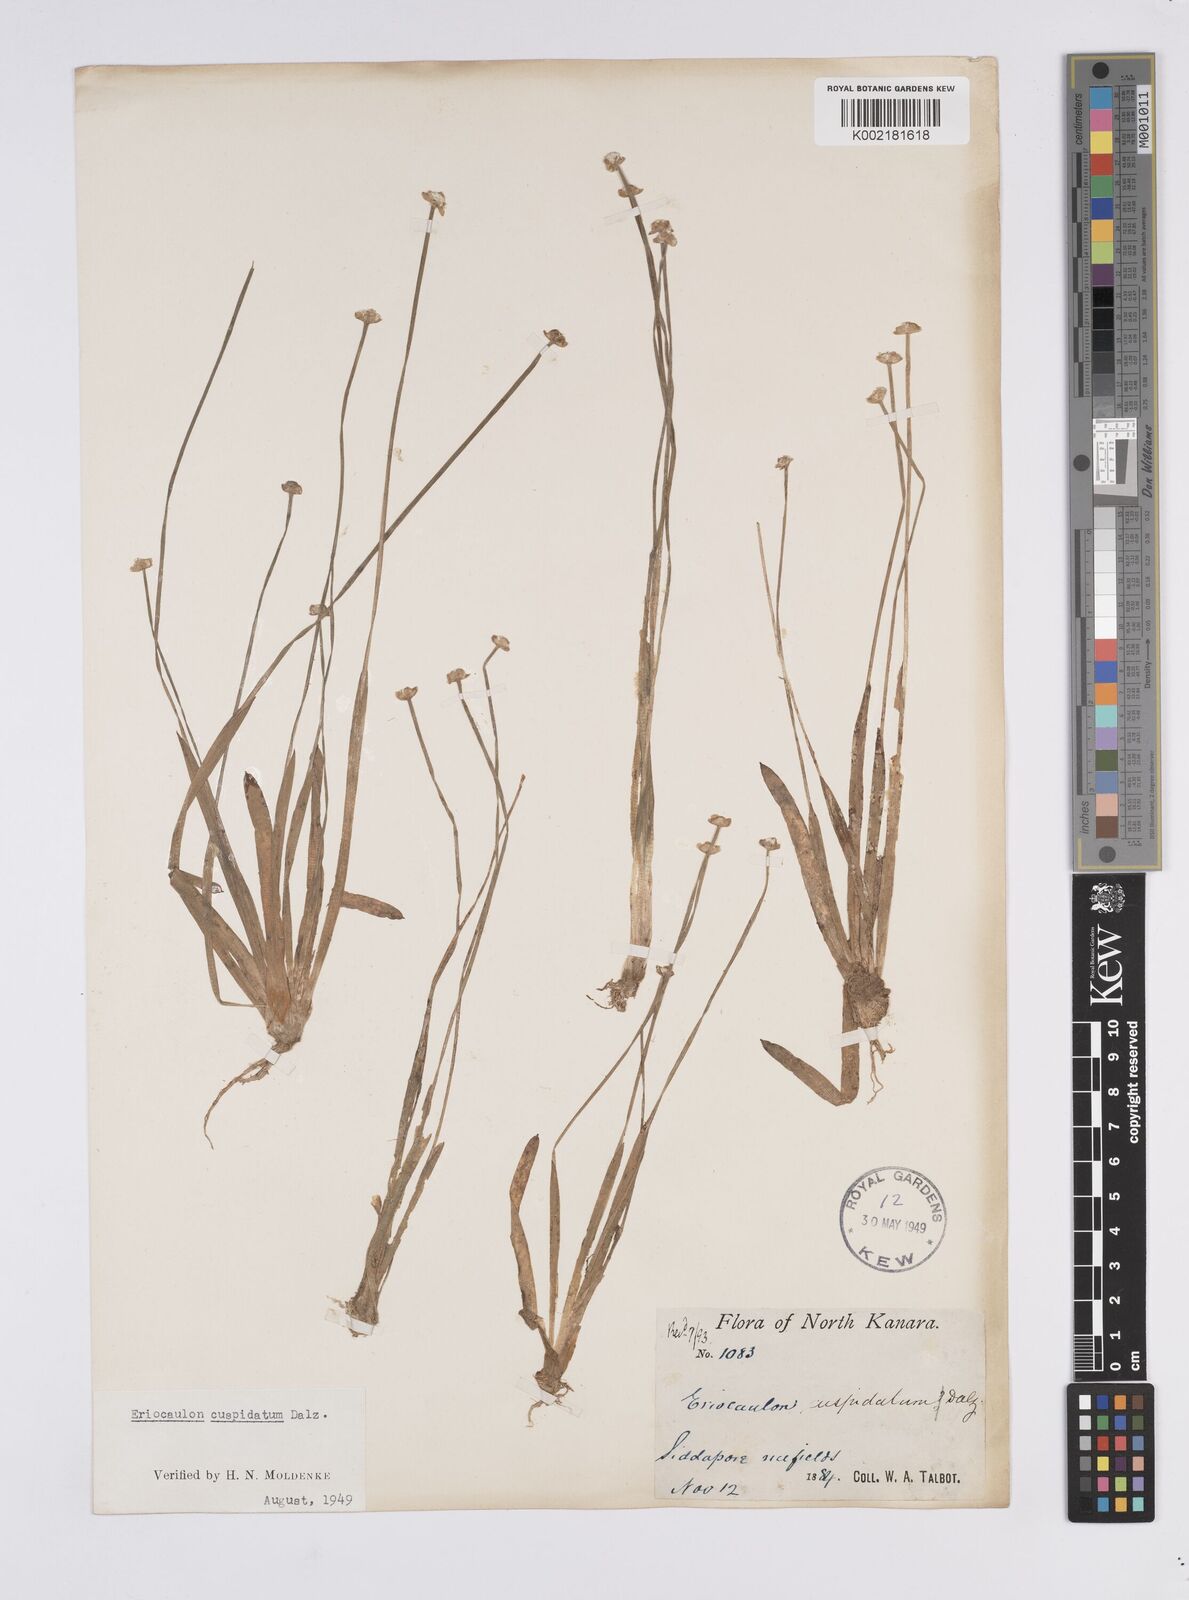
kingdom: Plantae
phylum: Tracheophyta
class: Liliopsida
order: Poales
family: Eriocaulaceae
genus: Eriocaulon
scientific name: Eriocaulon fysonii
